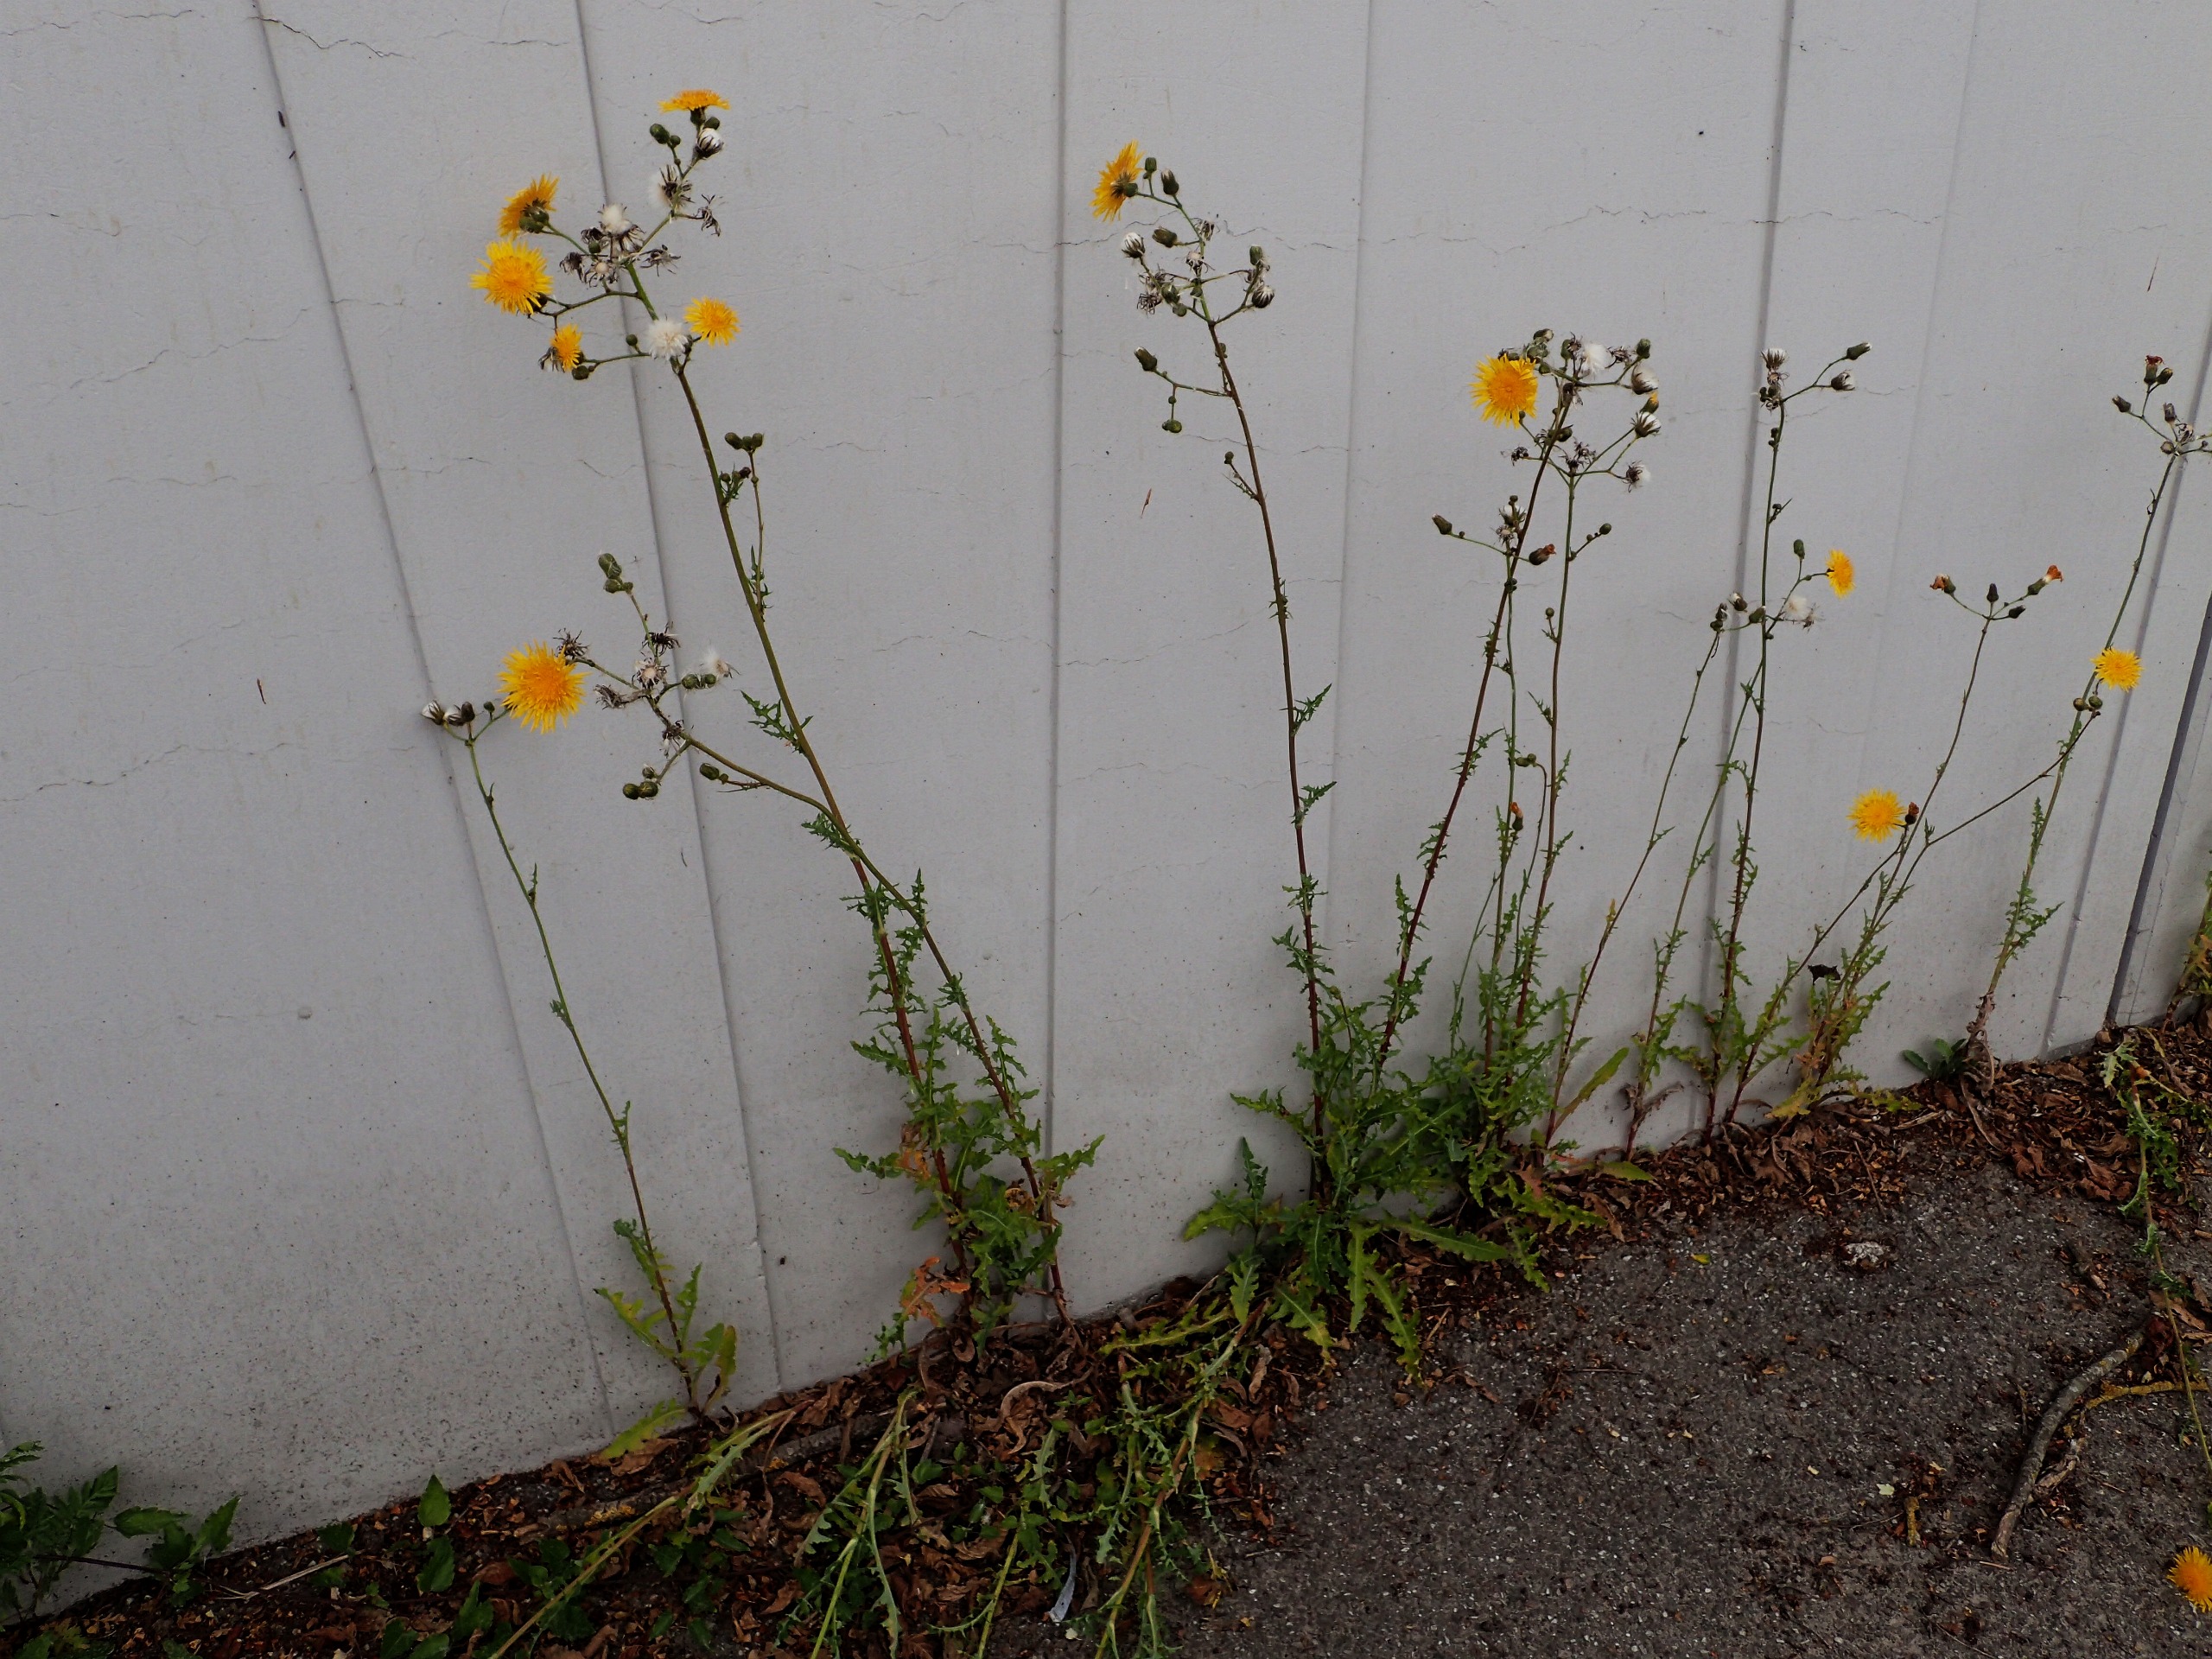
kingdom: Plantae
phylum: Tracheophyta
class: Magnoliopsida
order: Asterales
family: Asteraceae
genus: Sonchus
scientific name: Sonchus arvensis
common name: Ager-svinemælk
